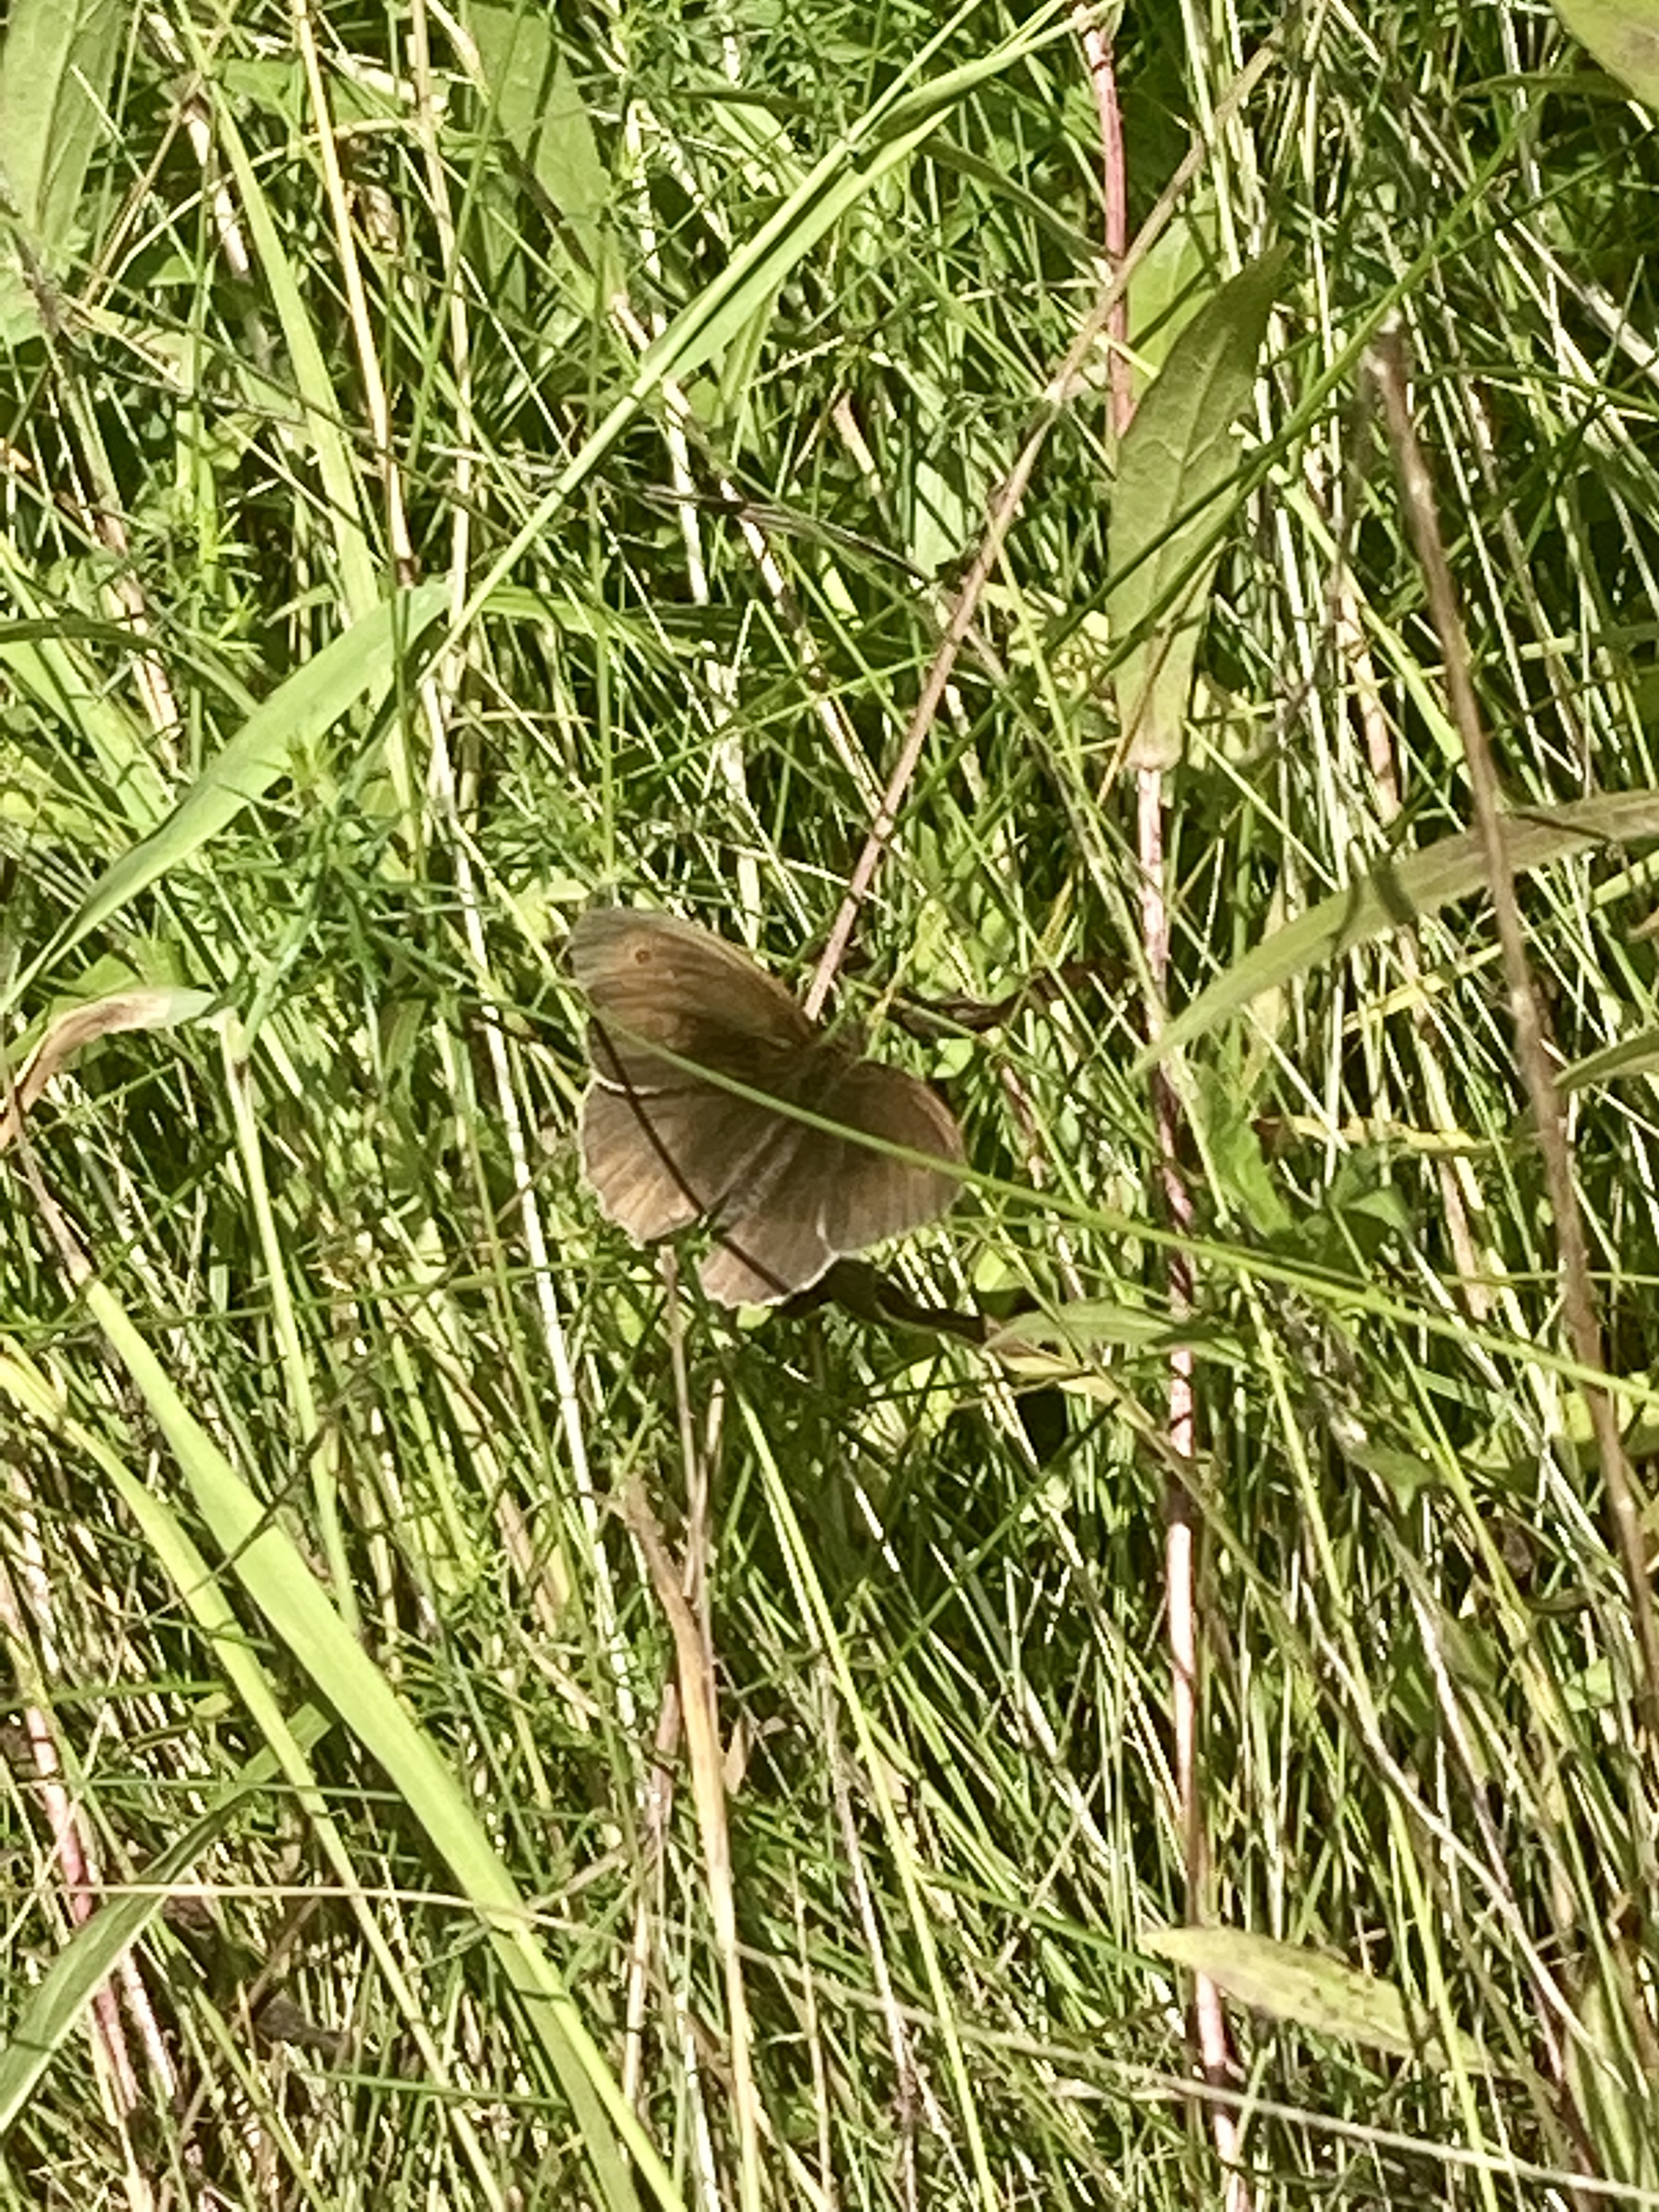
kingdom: Animalia
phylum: Arthropoda
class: Insecta
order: Lepidoptera
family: Nymphalidae
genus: Maniola
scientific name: Maniola jurtina
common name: Græsrandøje
